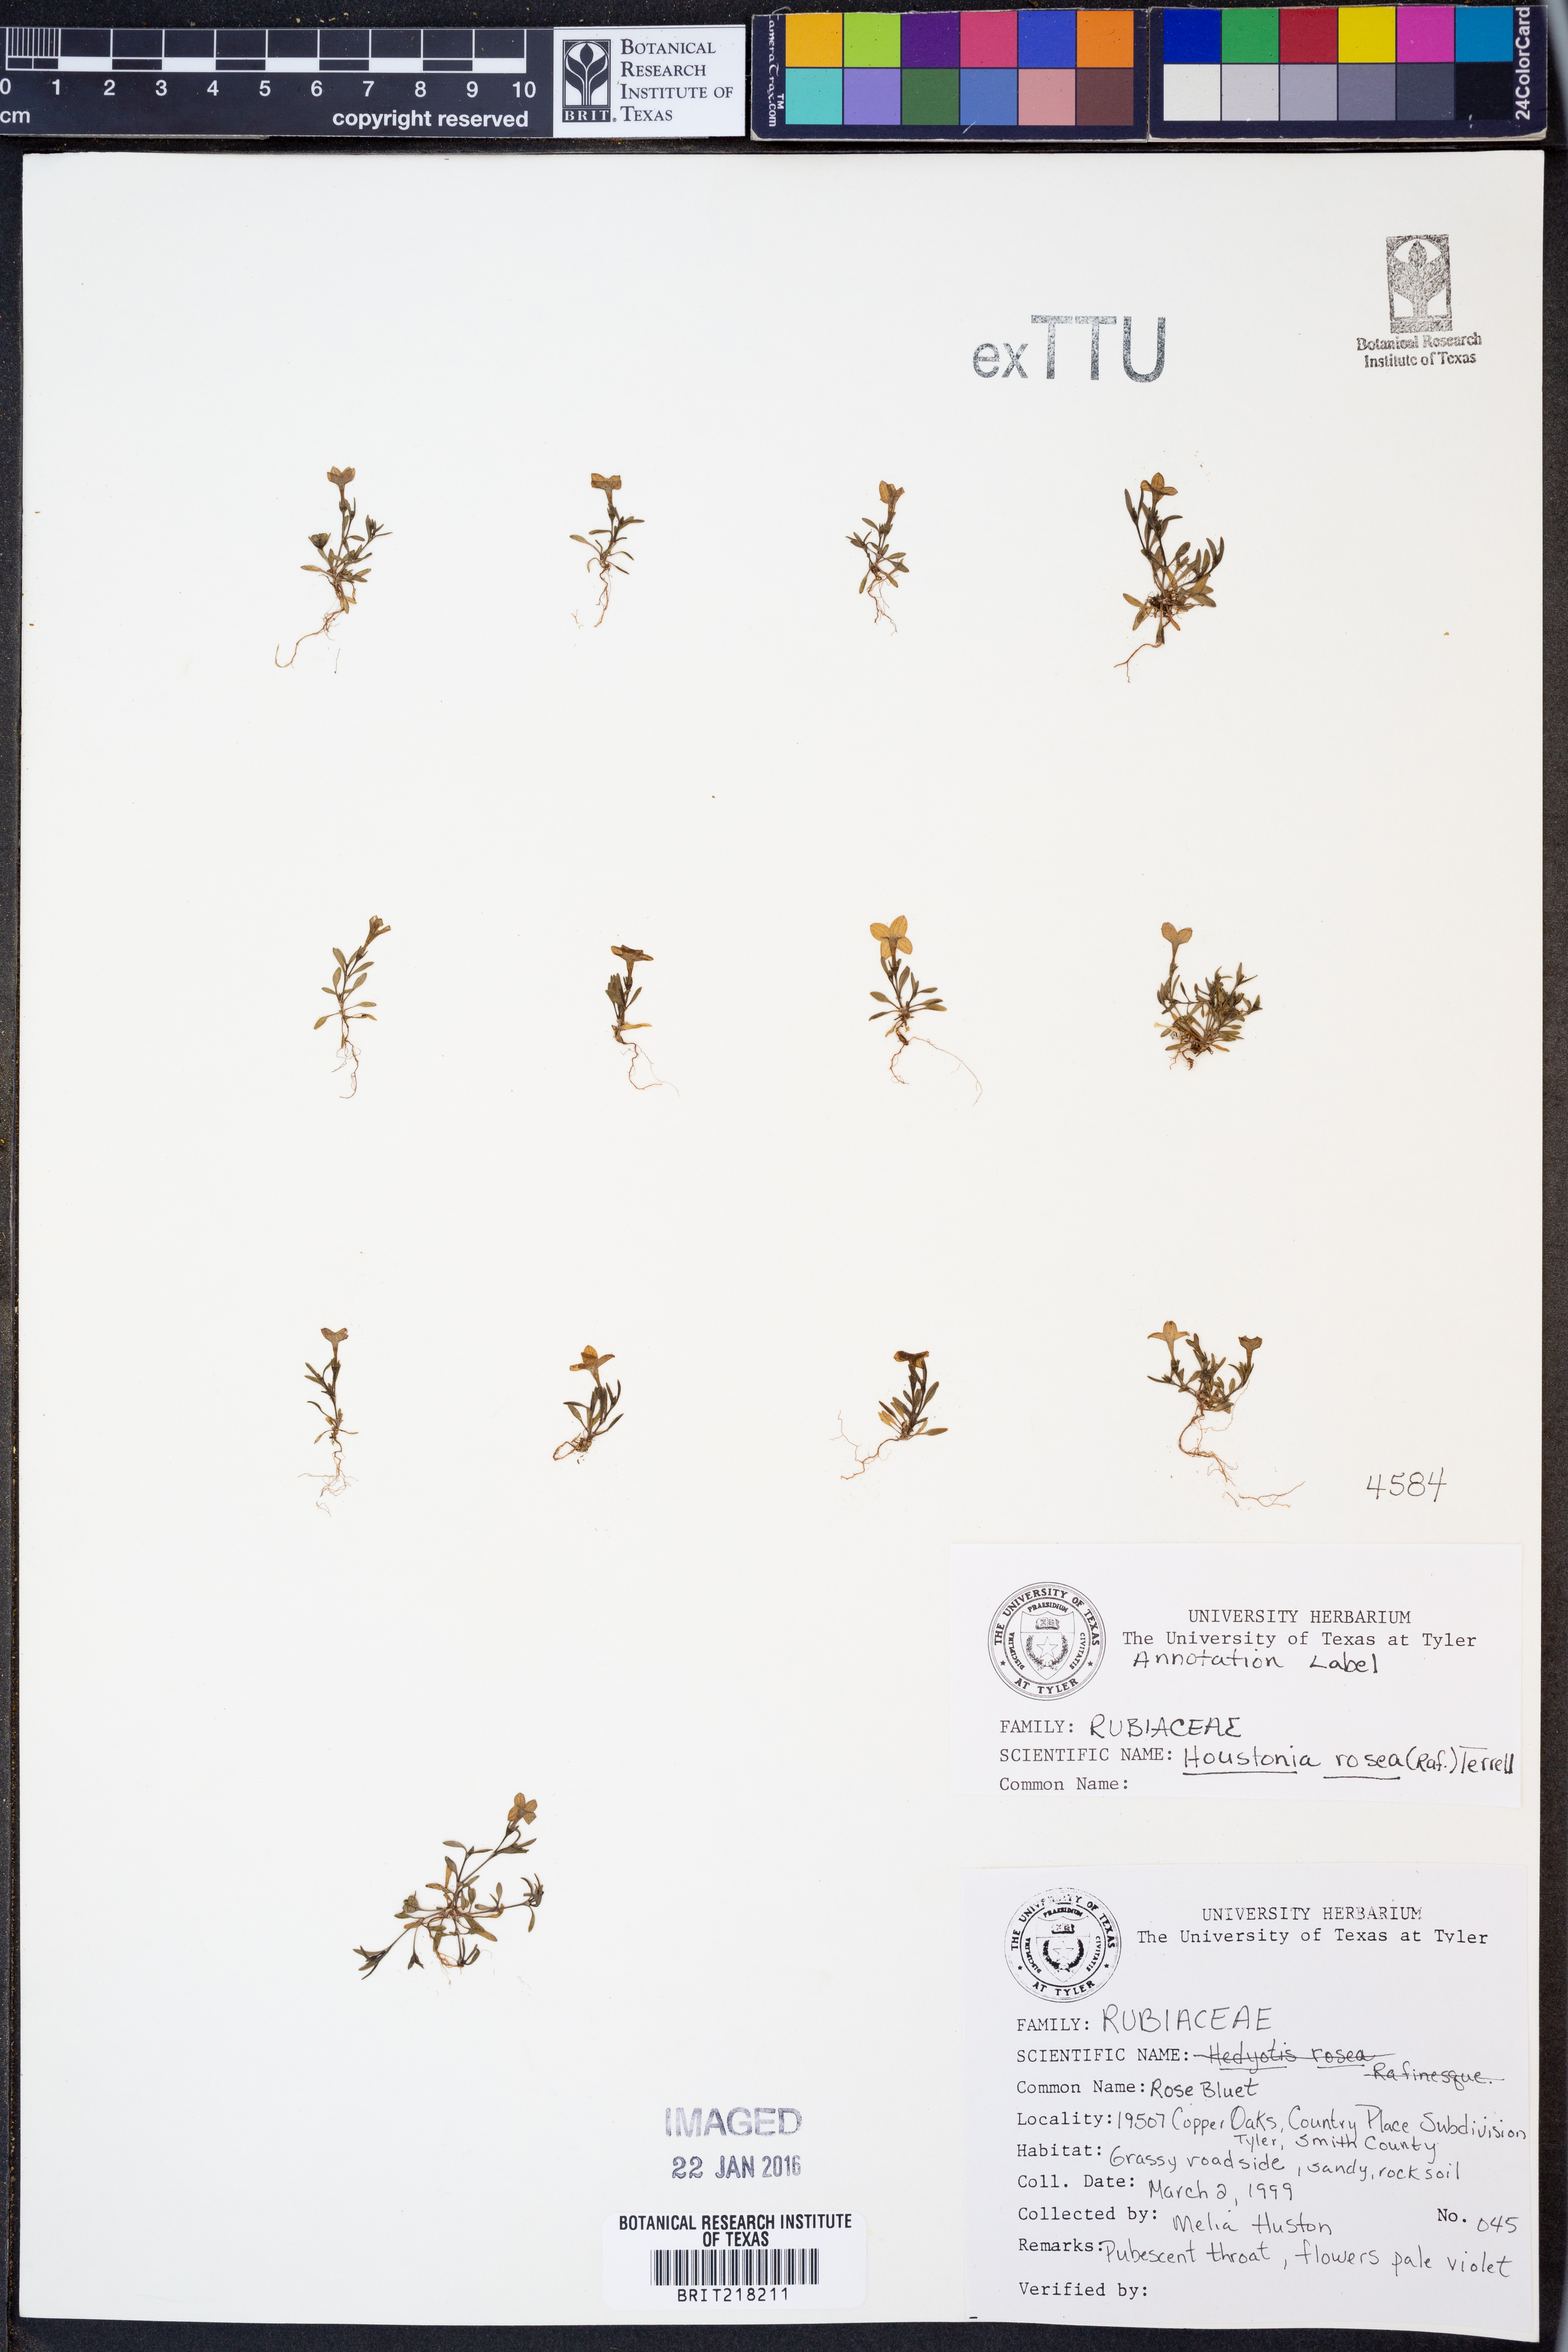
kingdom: Plantae
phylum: Tracheophyta
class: Magnoliopsida
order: Gentianales
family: Rubiaceae
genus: Houstonia
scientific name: Houstonia rosea
